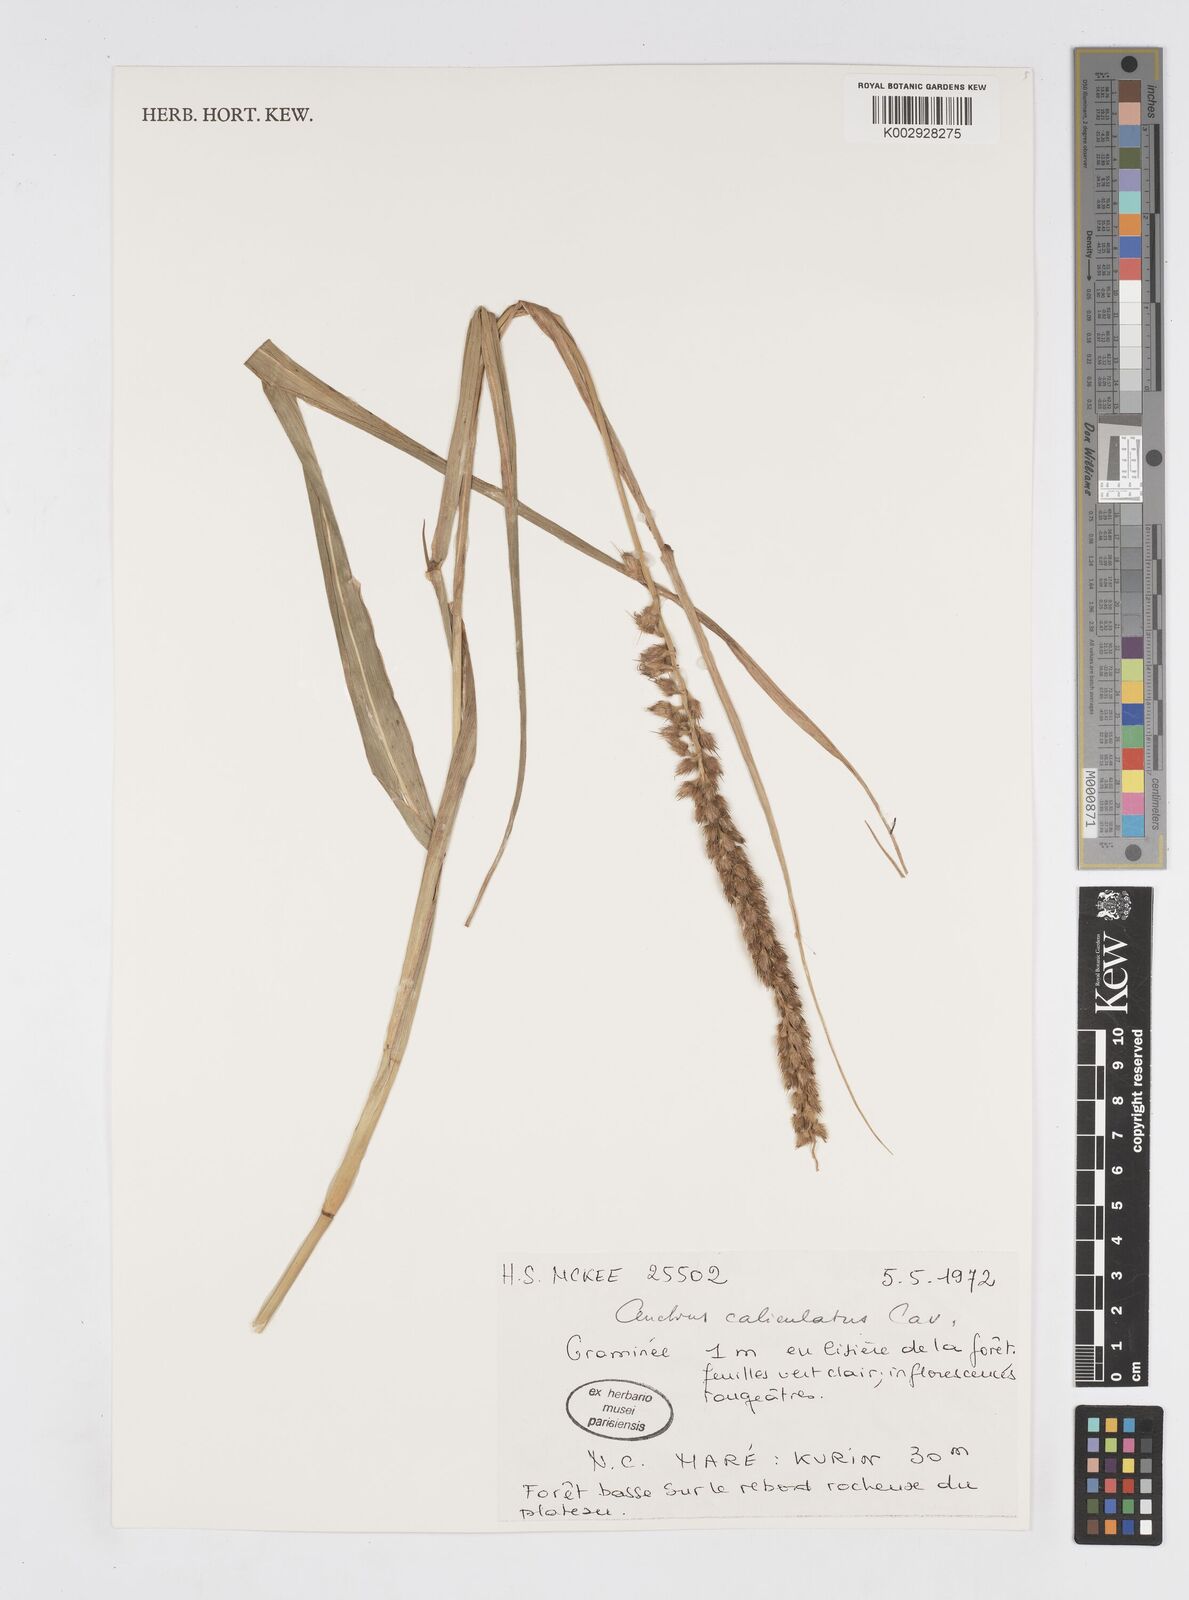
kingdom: Plantae
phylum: Tracheophyta
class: Liliopsida
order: Poales
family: Poaceae
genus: Cenchrus
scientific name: Cenchrus caliculatus
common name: Large bur grass
